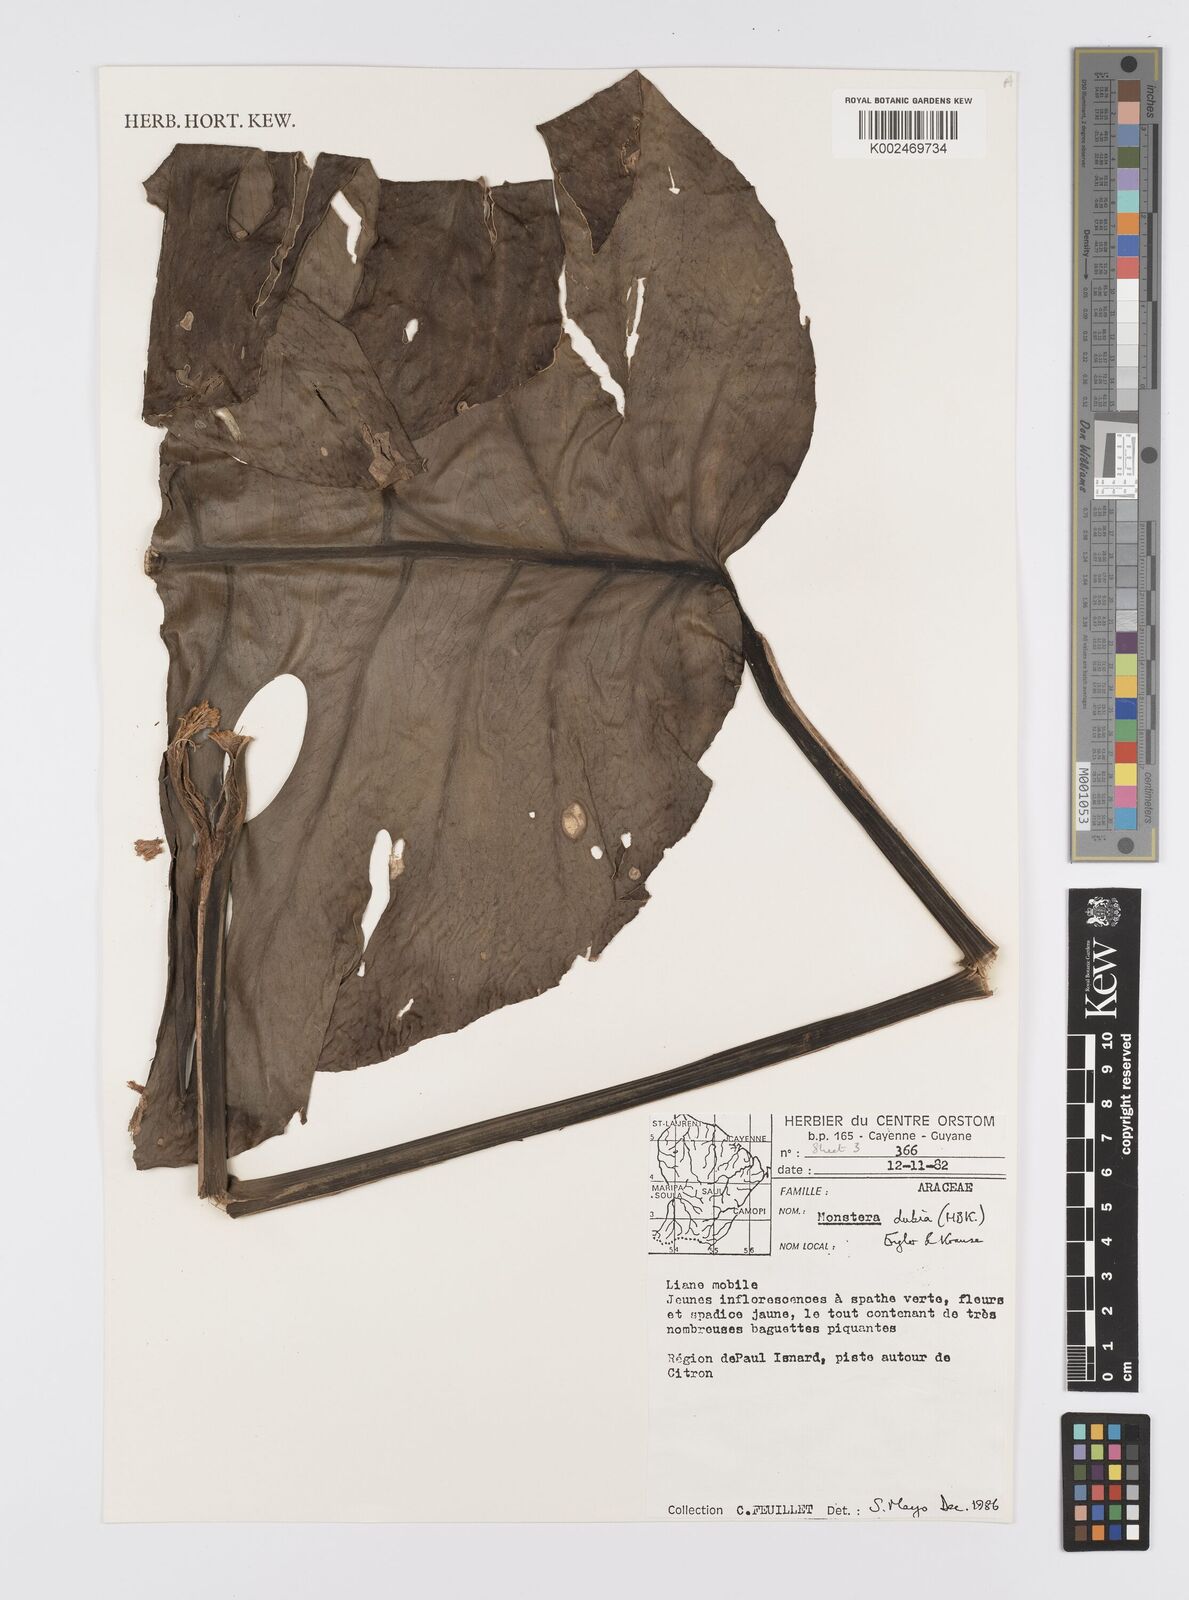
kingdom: Plantae
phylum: Tracheophyta
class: Liliopsida
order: Alismatales
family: Araceae
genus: Monstera
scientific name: Monstera dubia
